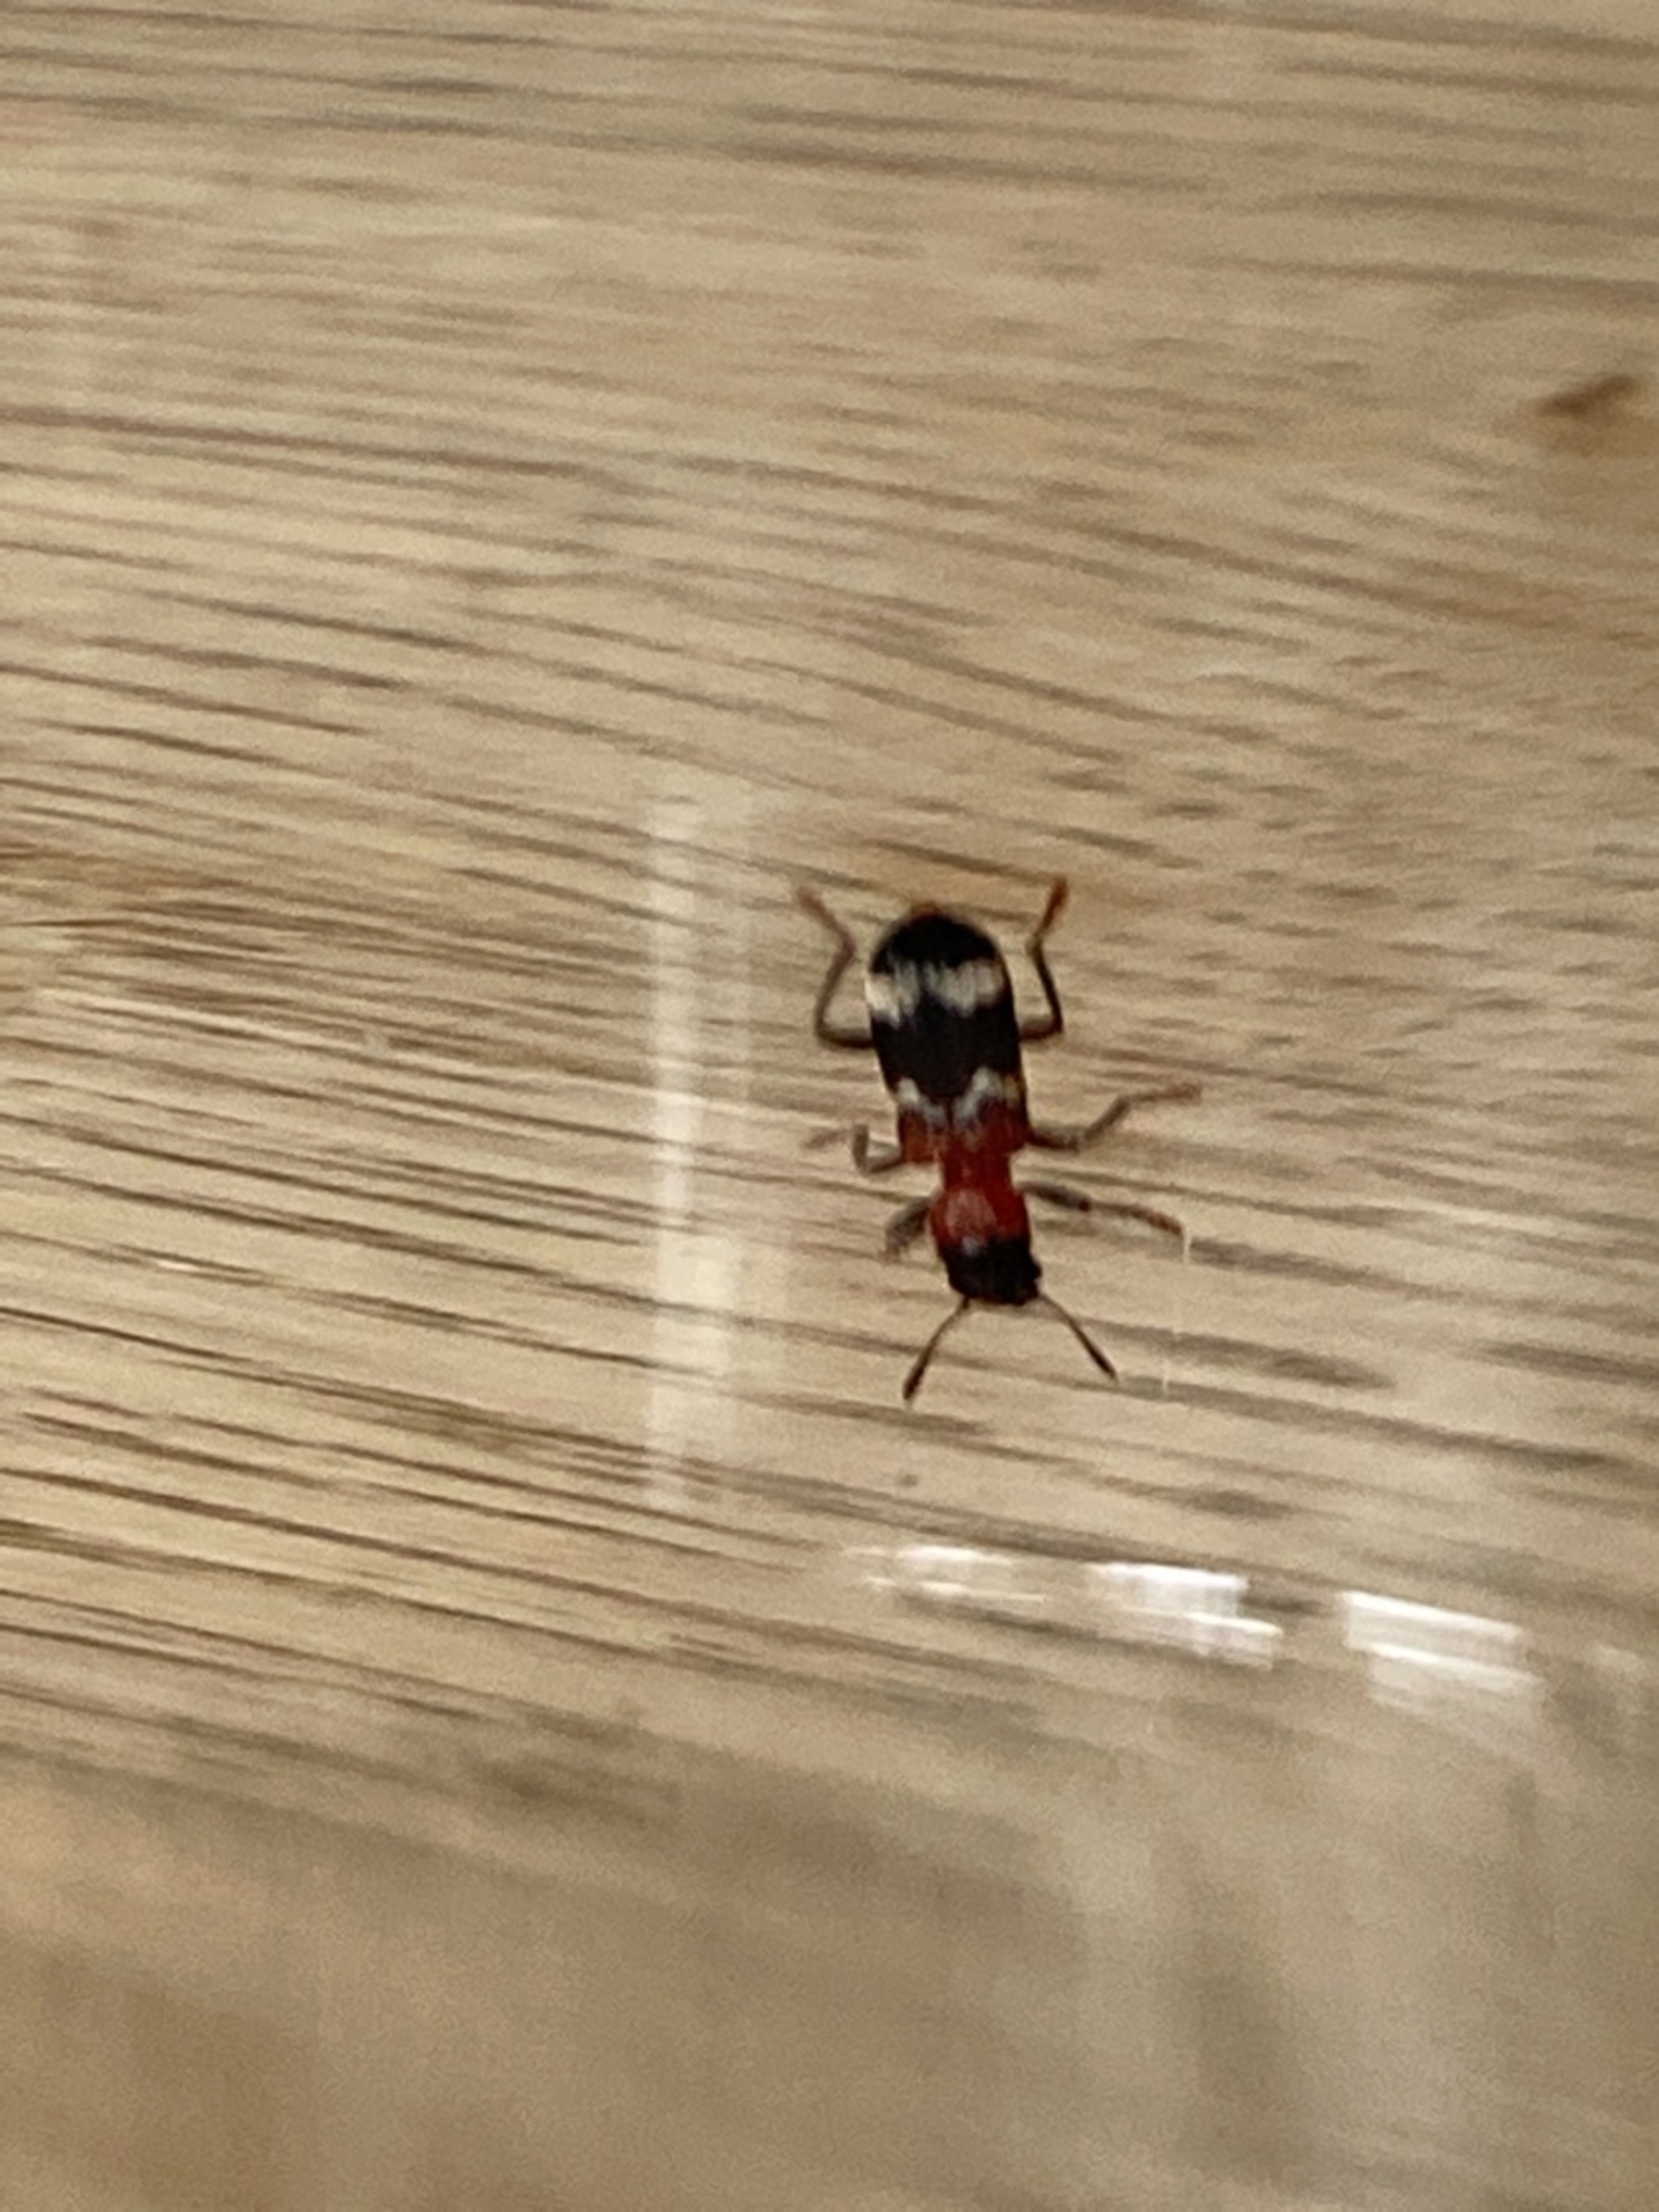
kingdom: Animalia
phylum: Arthropoda
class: Insecta
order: Coleoptera
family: Cleridae
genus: Thanasimus
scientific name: Thanasimus formicarius
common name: Myrebille
